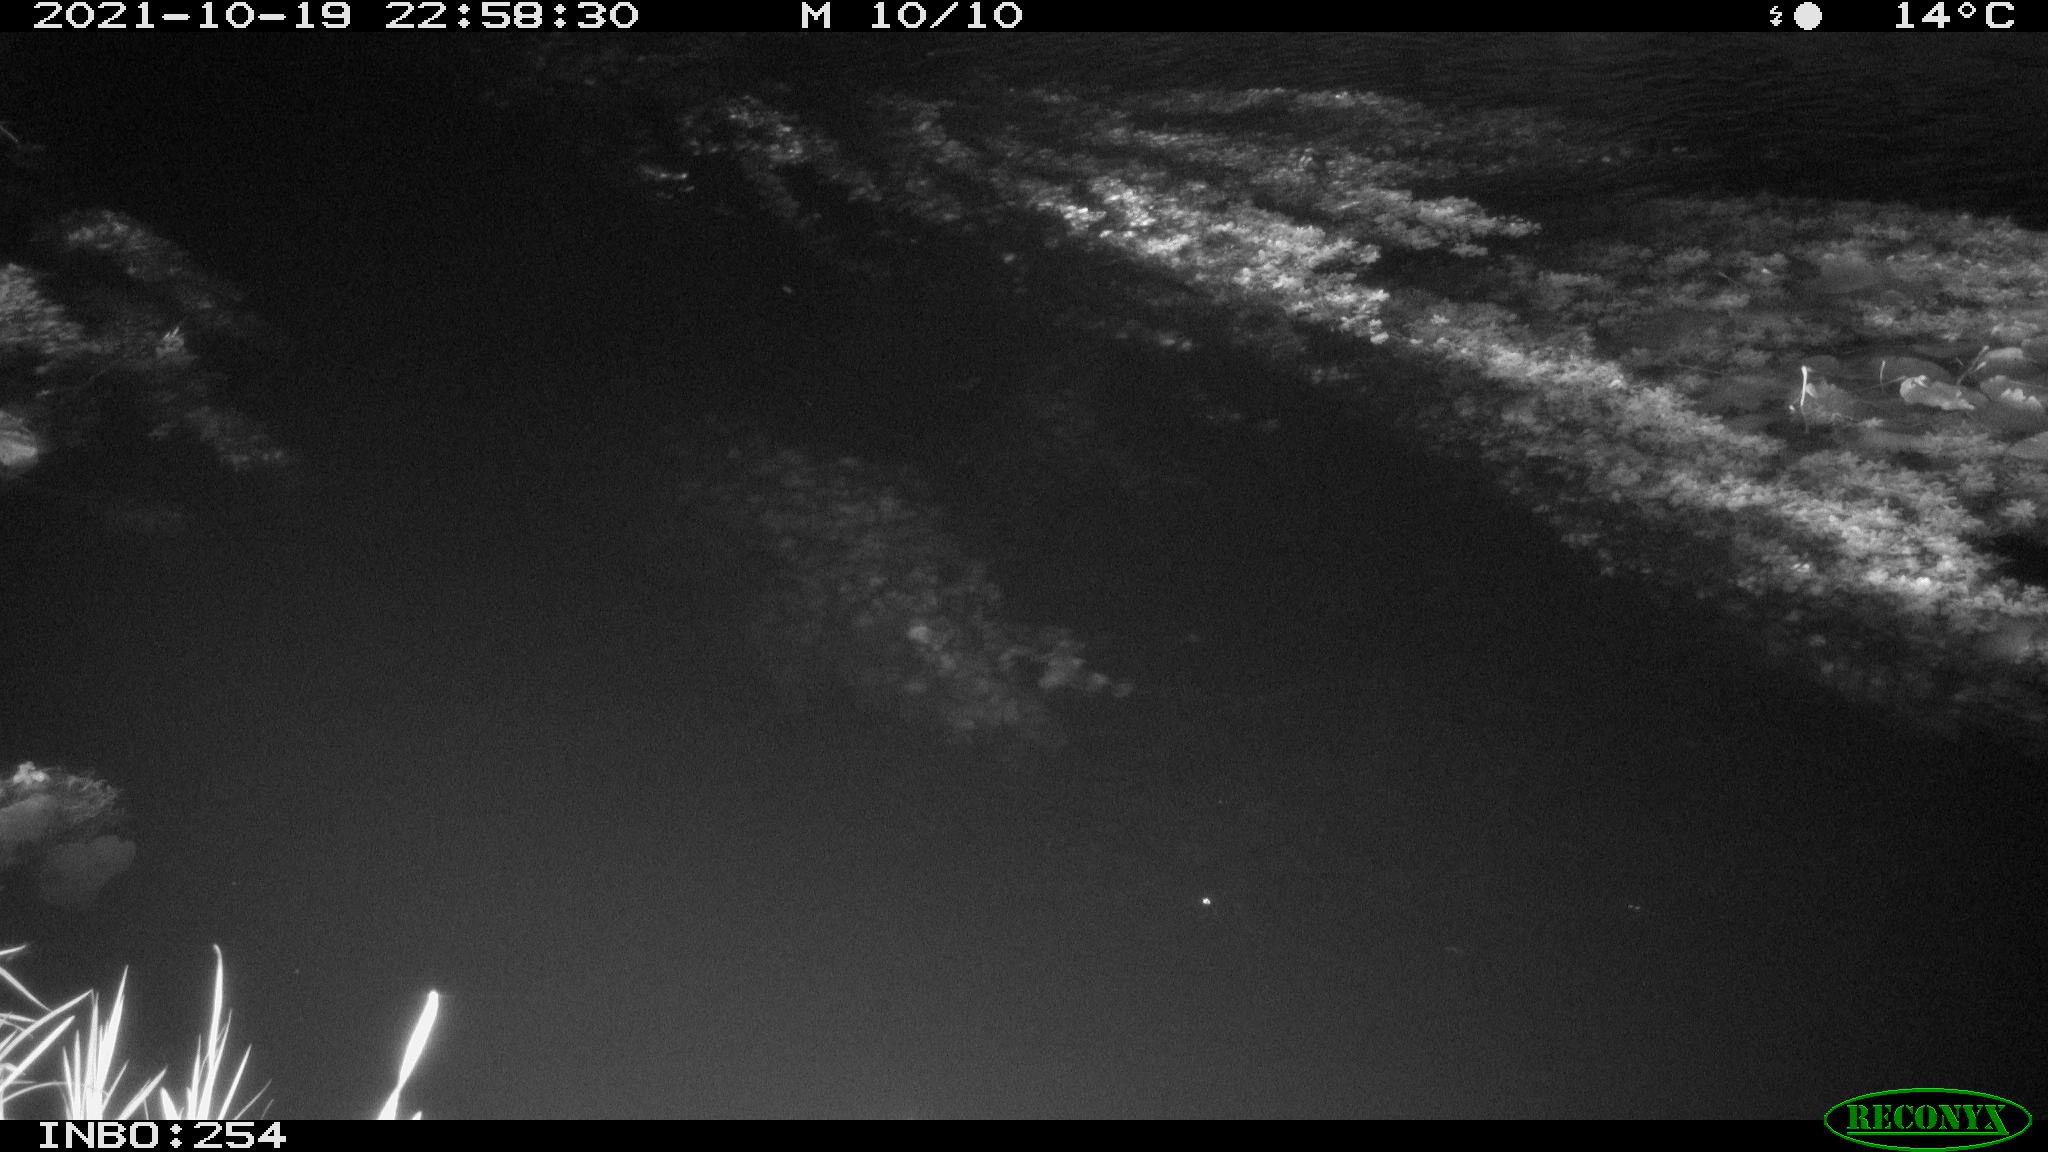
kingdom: Animalia
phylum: Chordata
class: Mammalia
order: Rodentia
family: Muridae
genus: Rattus
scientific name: Rattus norvegicus
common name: Brown rat
